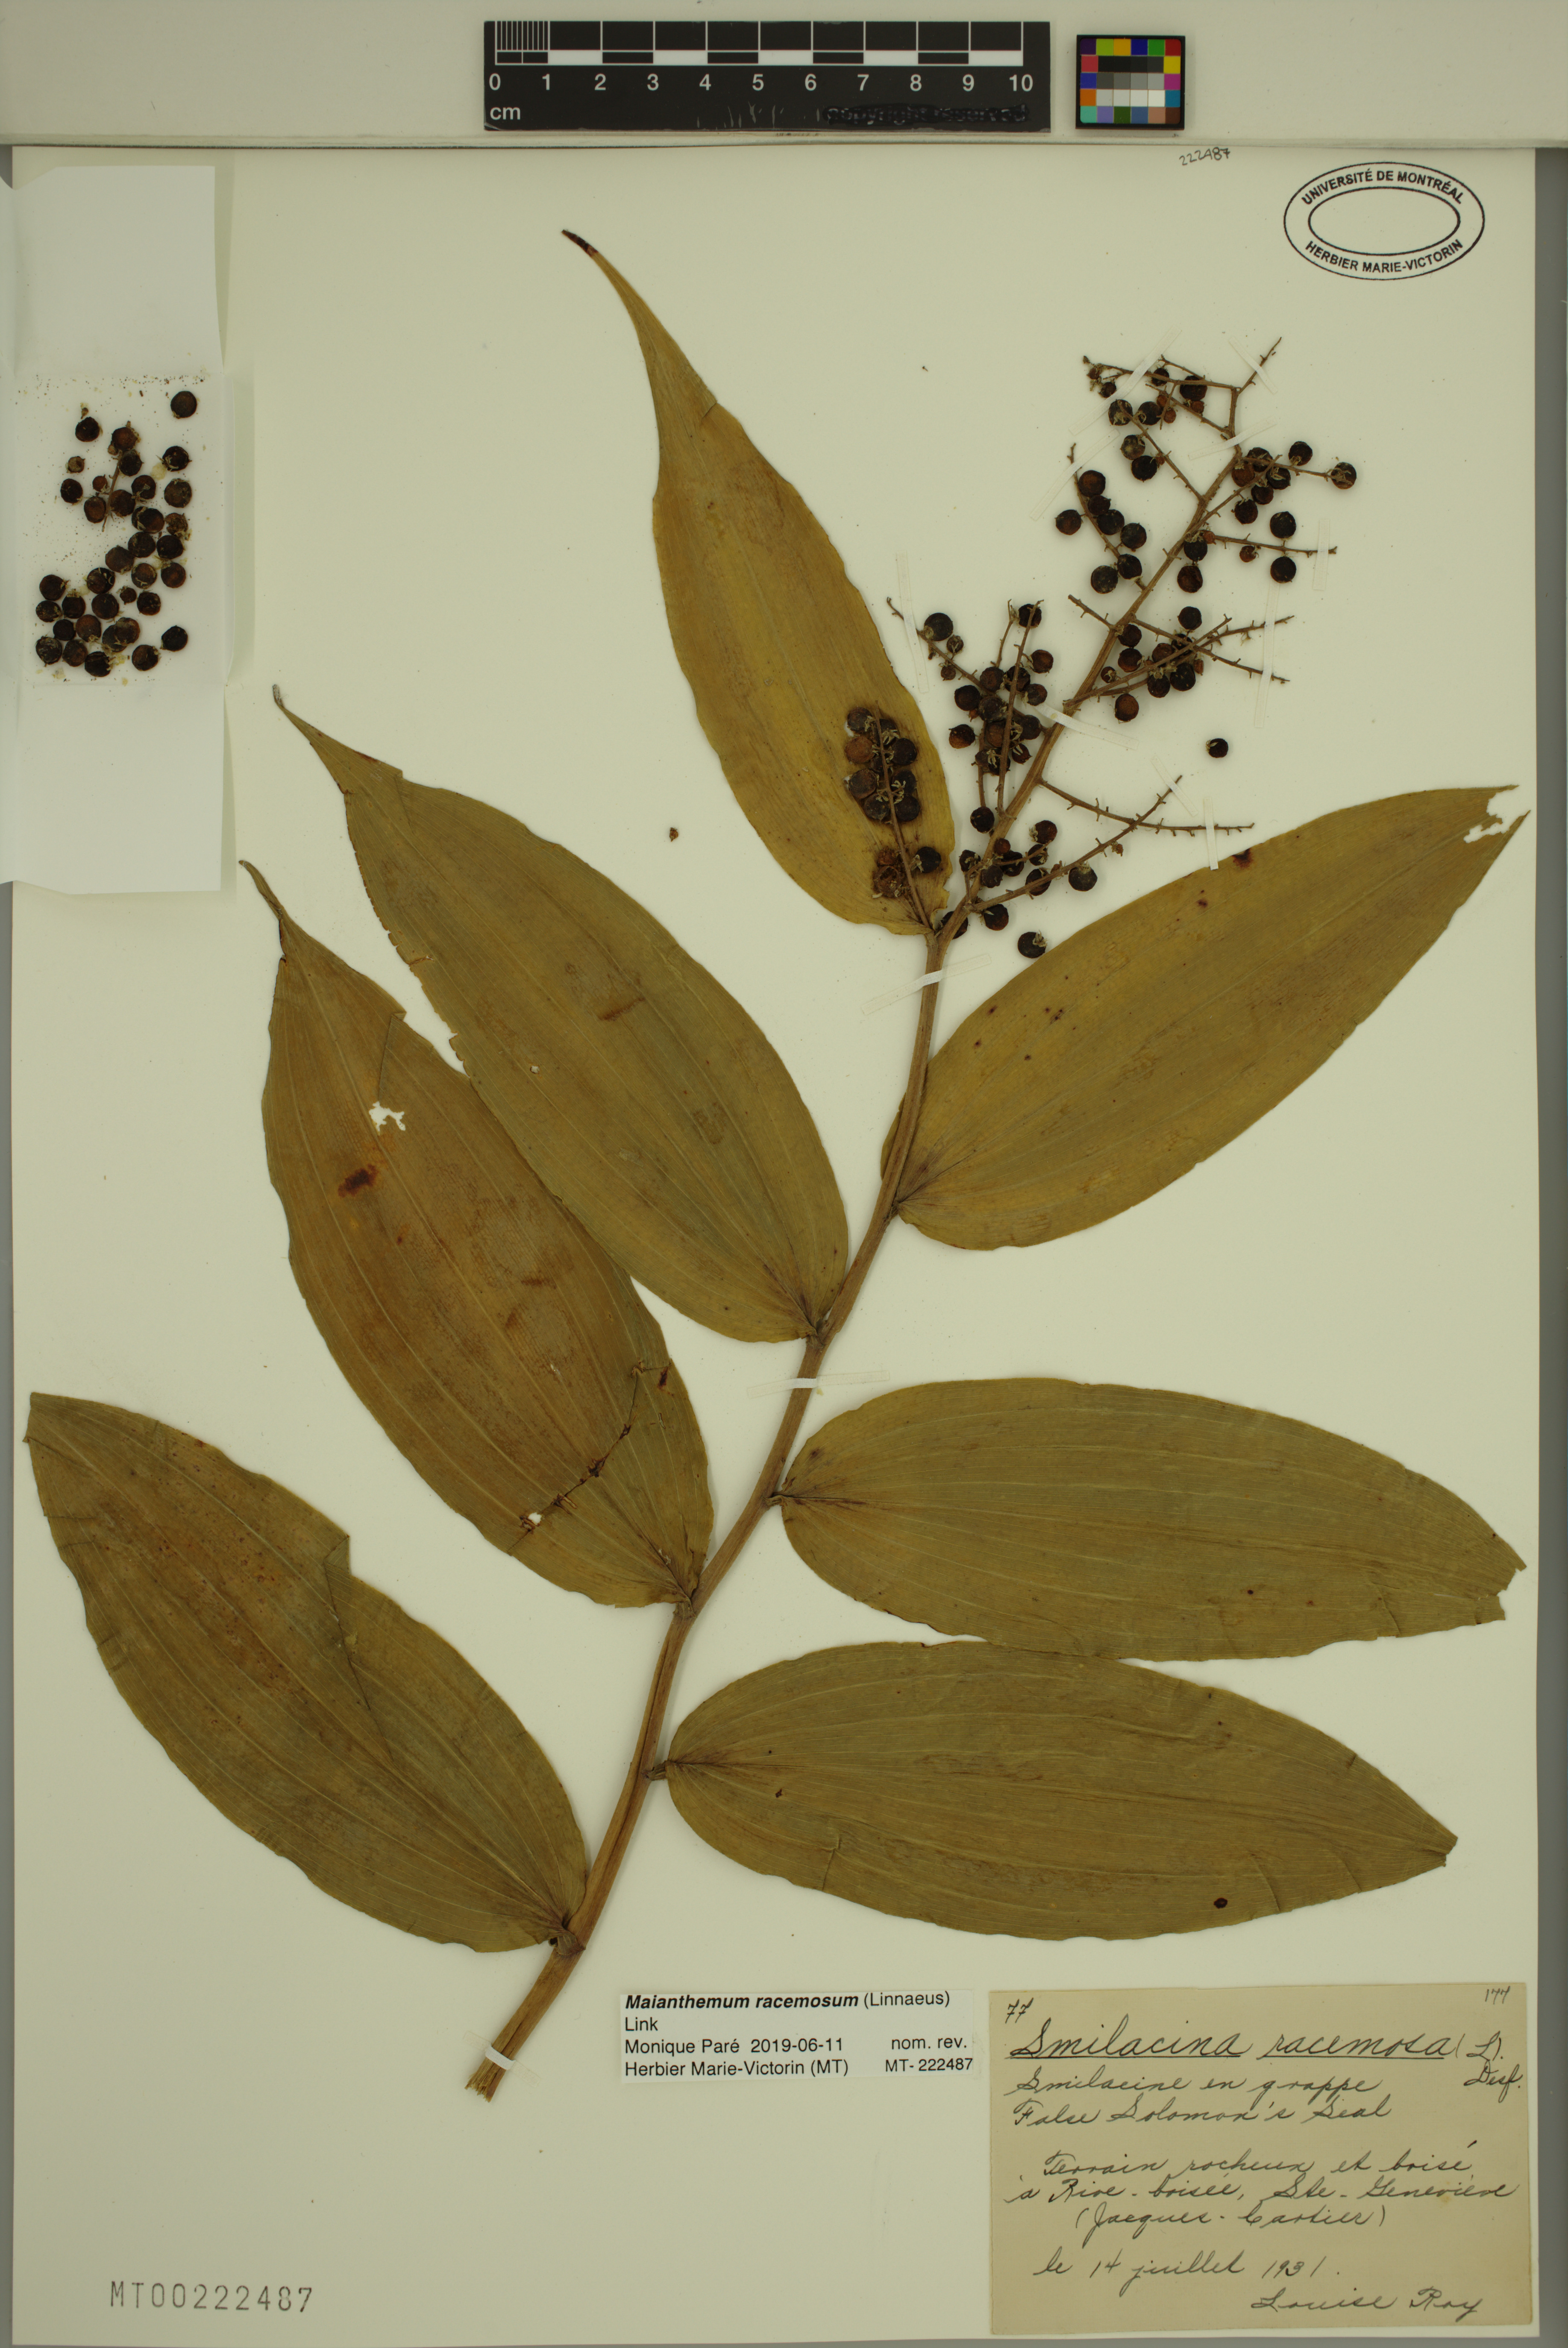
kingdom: Plantae
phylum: Tracheophyta
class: Liliopsida
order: Asparagales
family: Asparagaceae
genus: Maianthemum
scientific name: Maianthemum racemosum
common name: False spikenard
